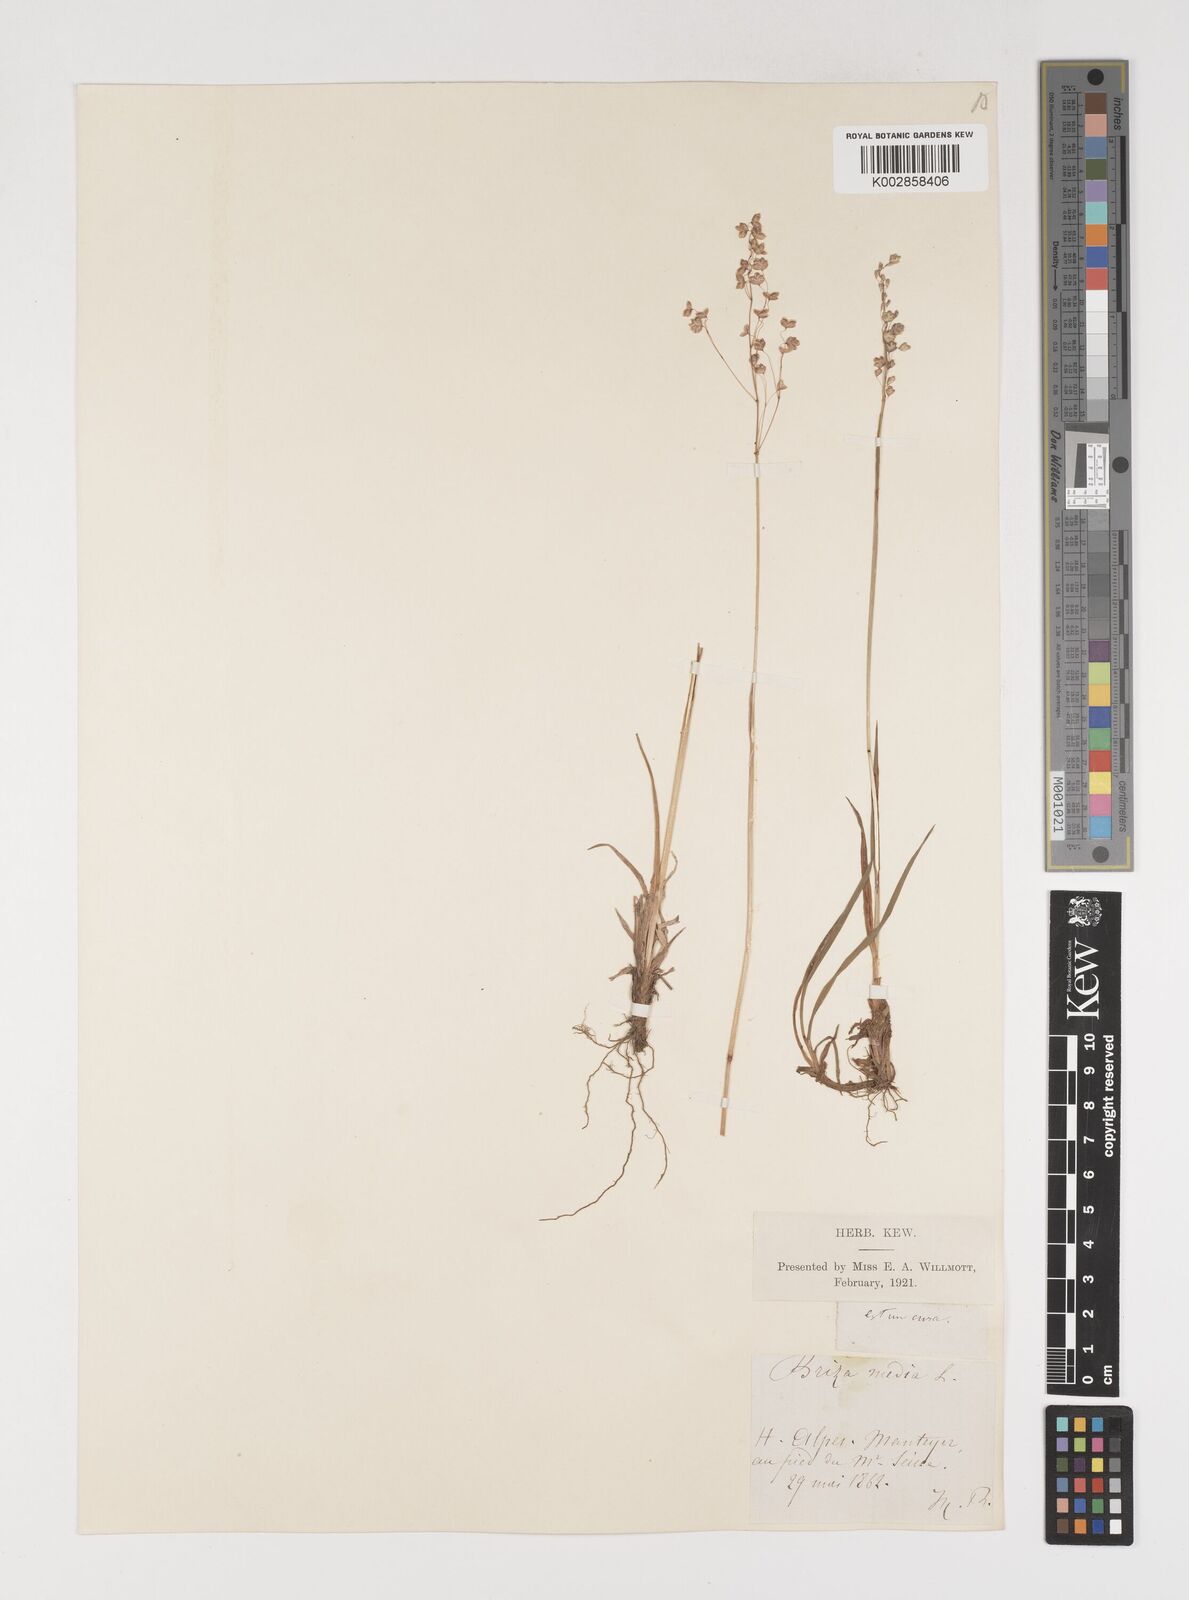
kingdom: Plantae
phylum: Tracheophyta
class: Liliopsida
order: Poales
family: Poaceae
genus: Briza
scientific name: Briza media
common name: Quaking grass
